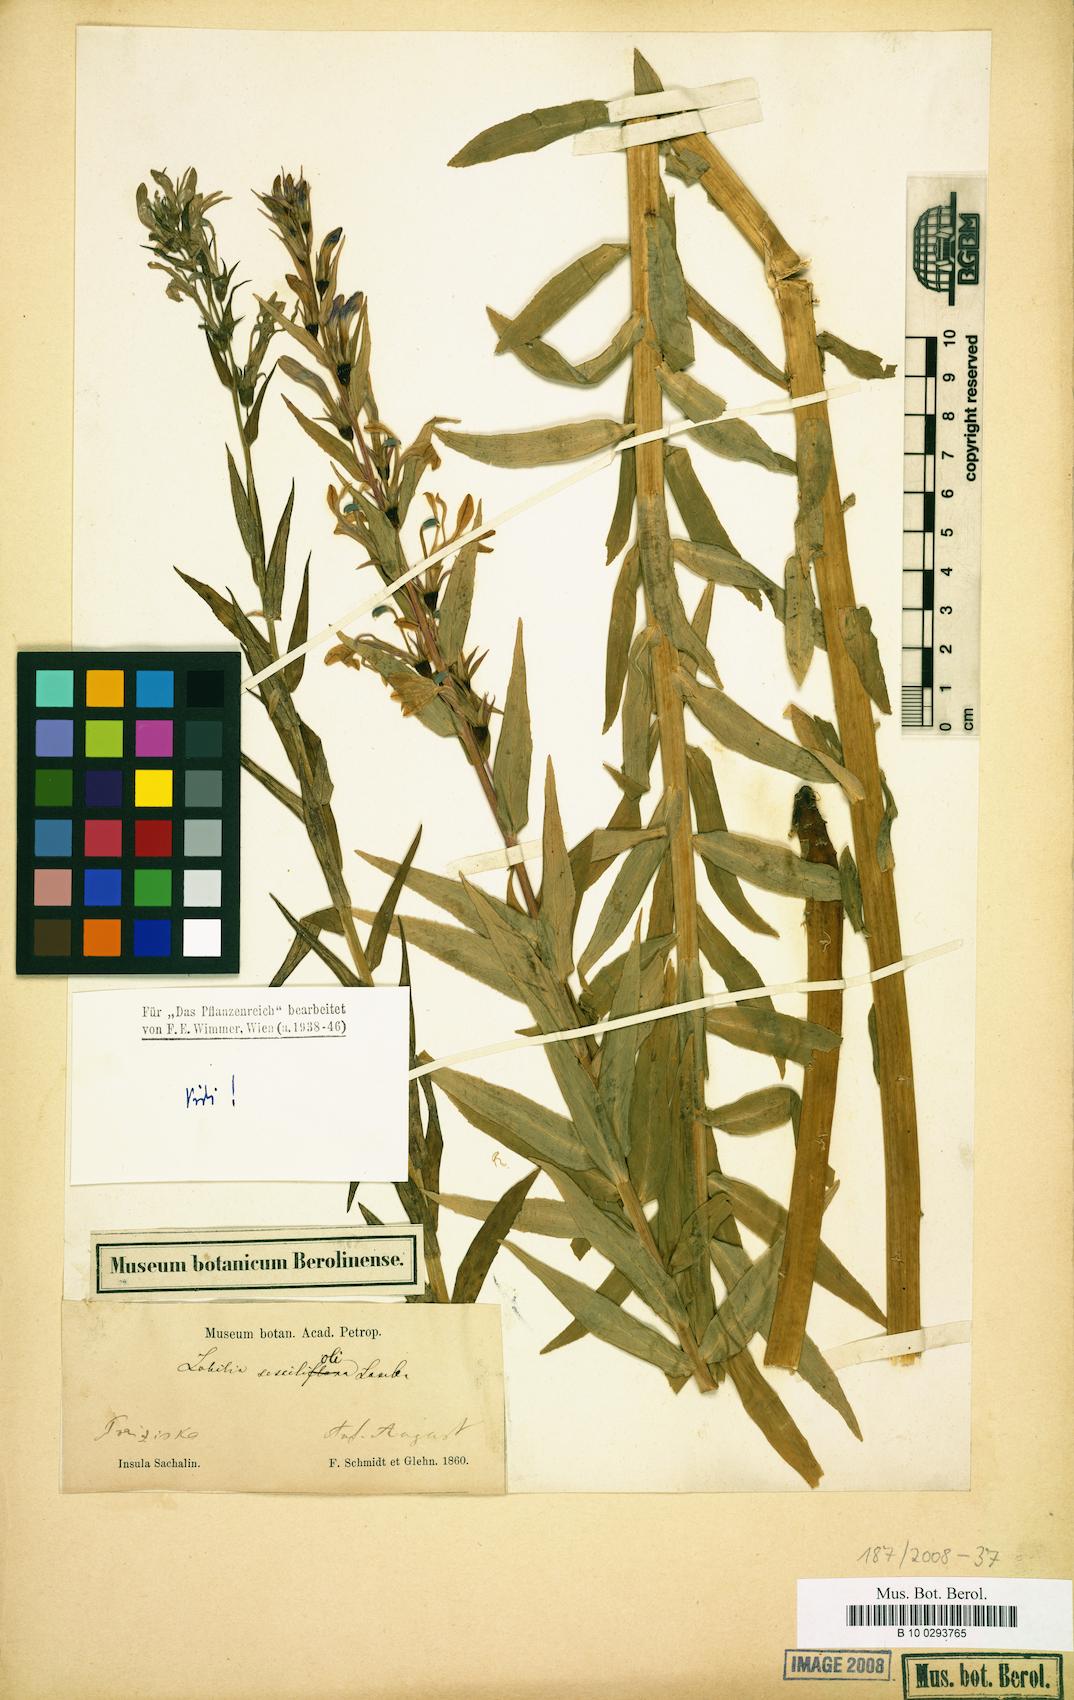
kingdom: Plantae
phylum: Tracheophyta
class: Magnoliopsida
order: Asterales
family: Campanulaceae
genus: Lobelia
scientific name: Lobelia sessilifolia
